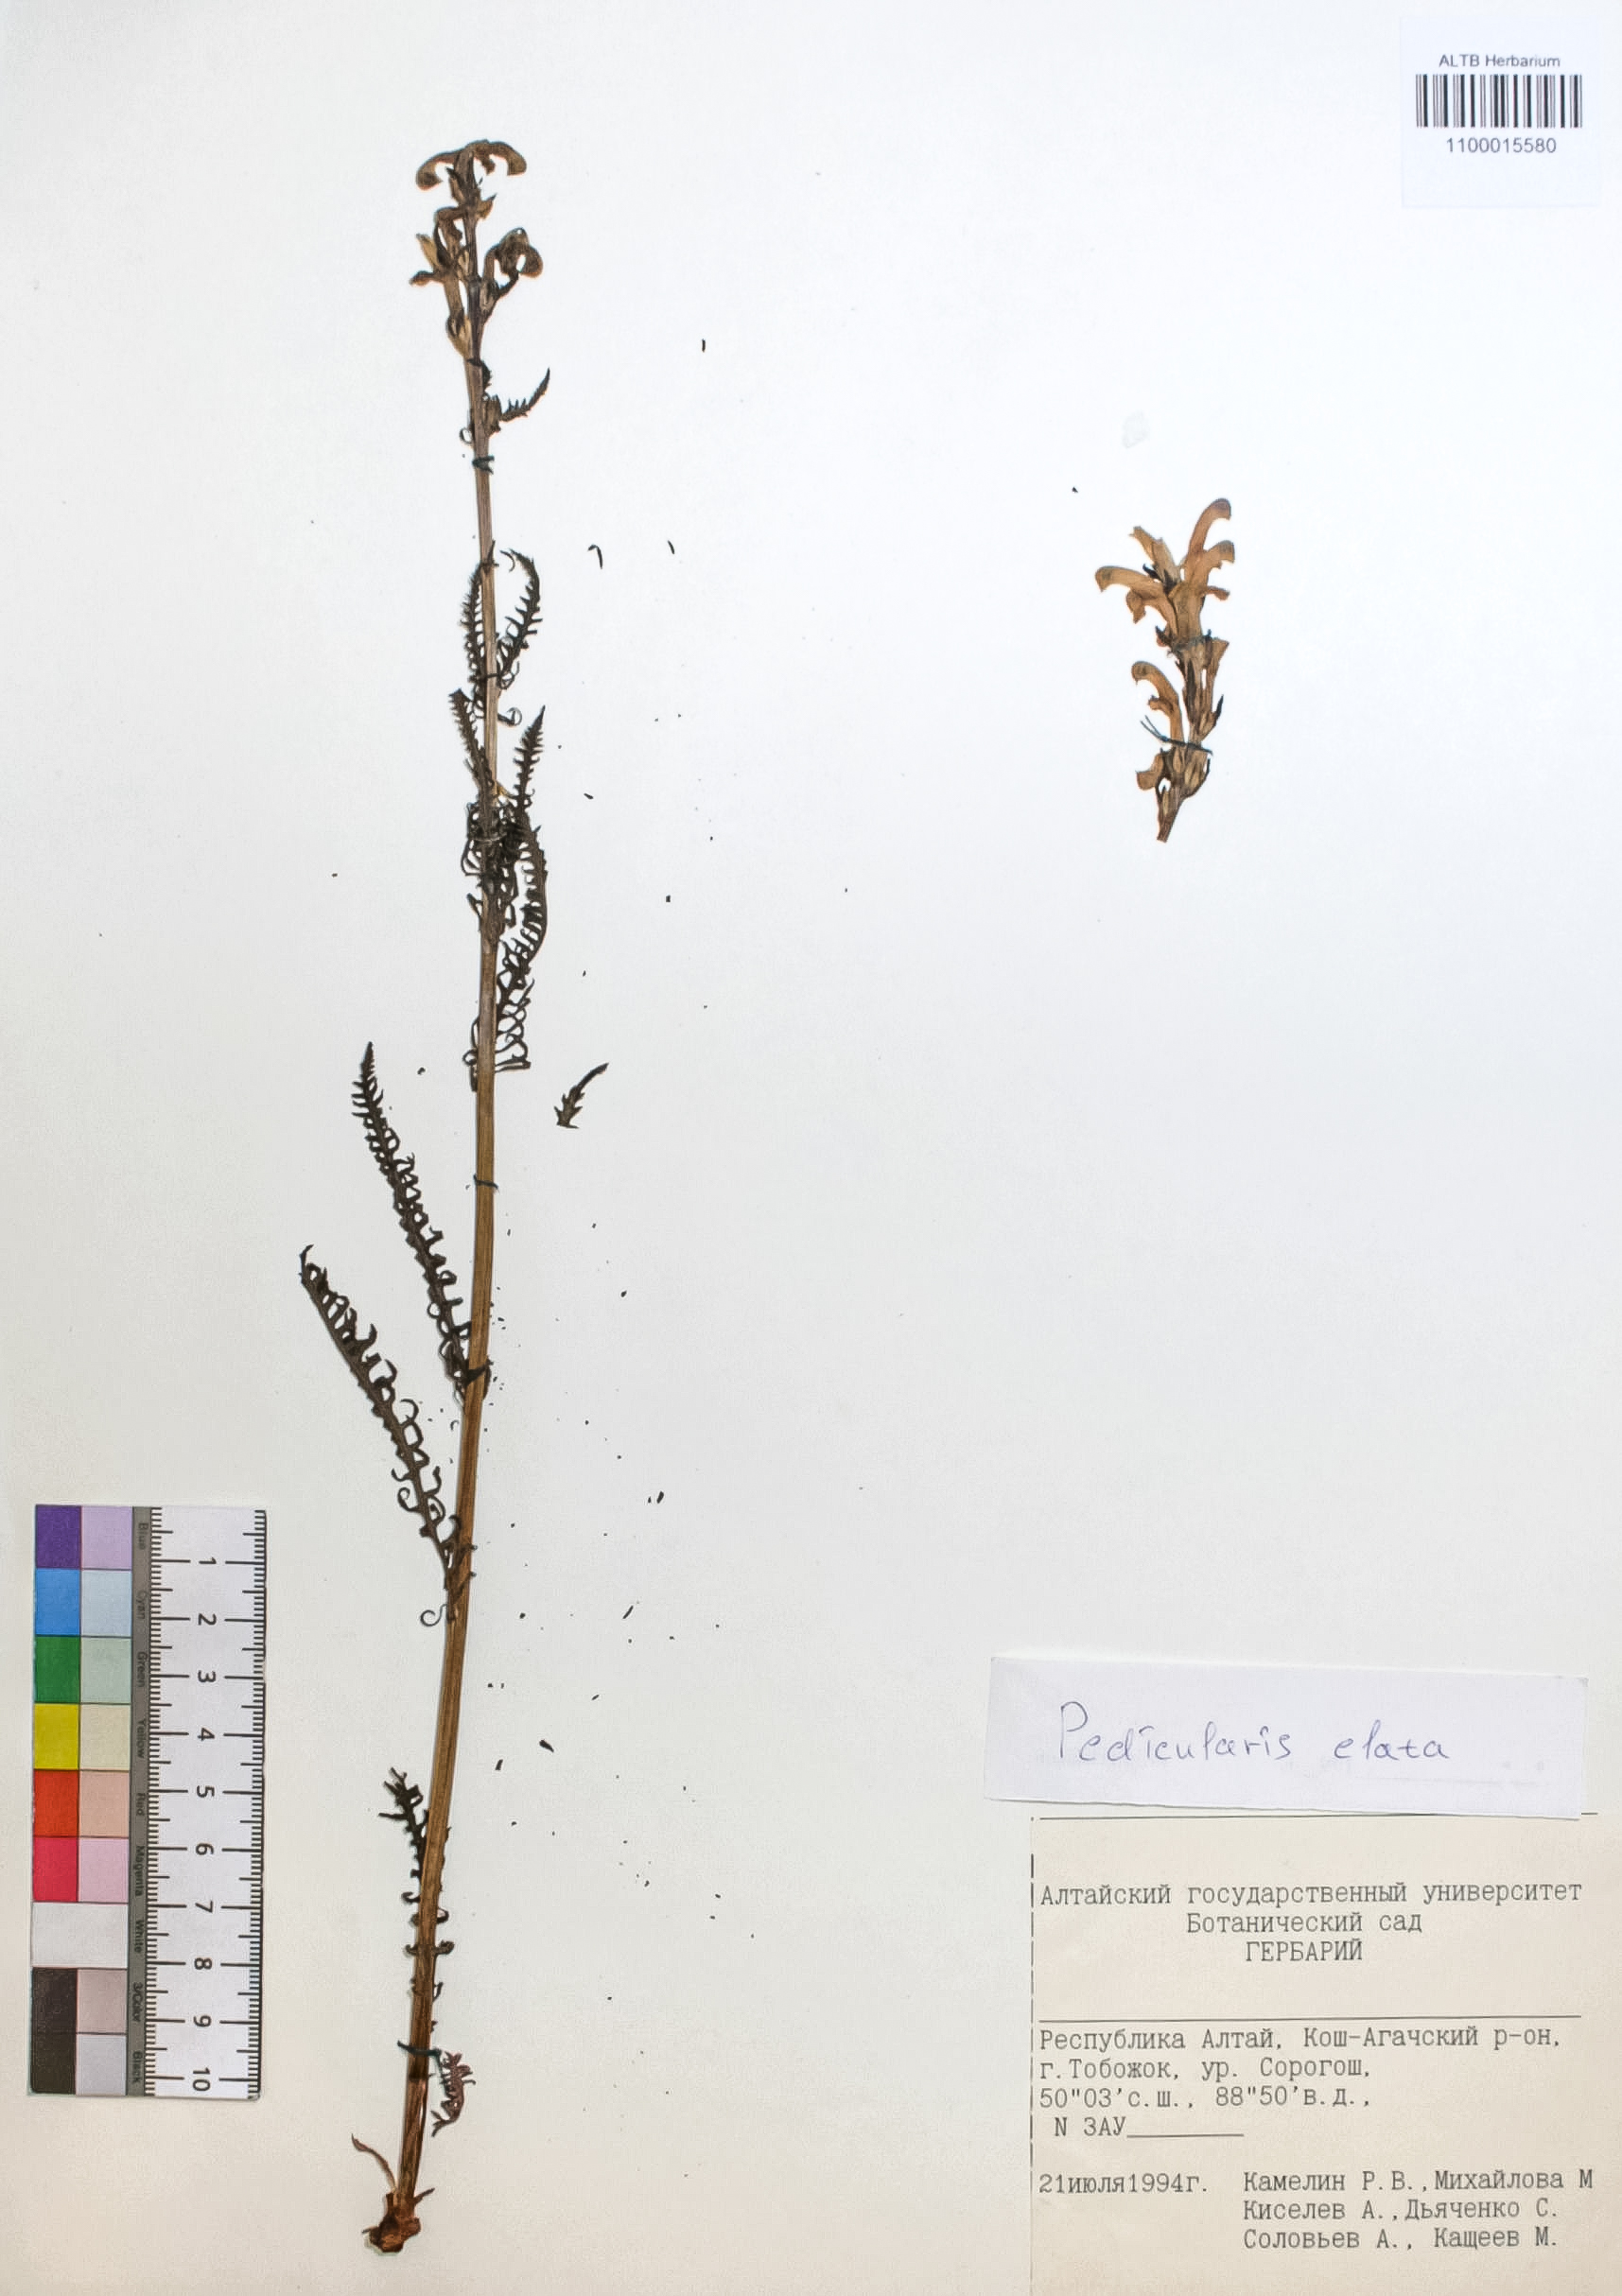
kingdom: Plantae
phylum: Tracheophyta
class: Magnoliopsida
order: Lamiales
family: Orobanchaceae
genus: Pedicularis
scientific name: Pedicularis elata
